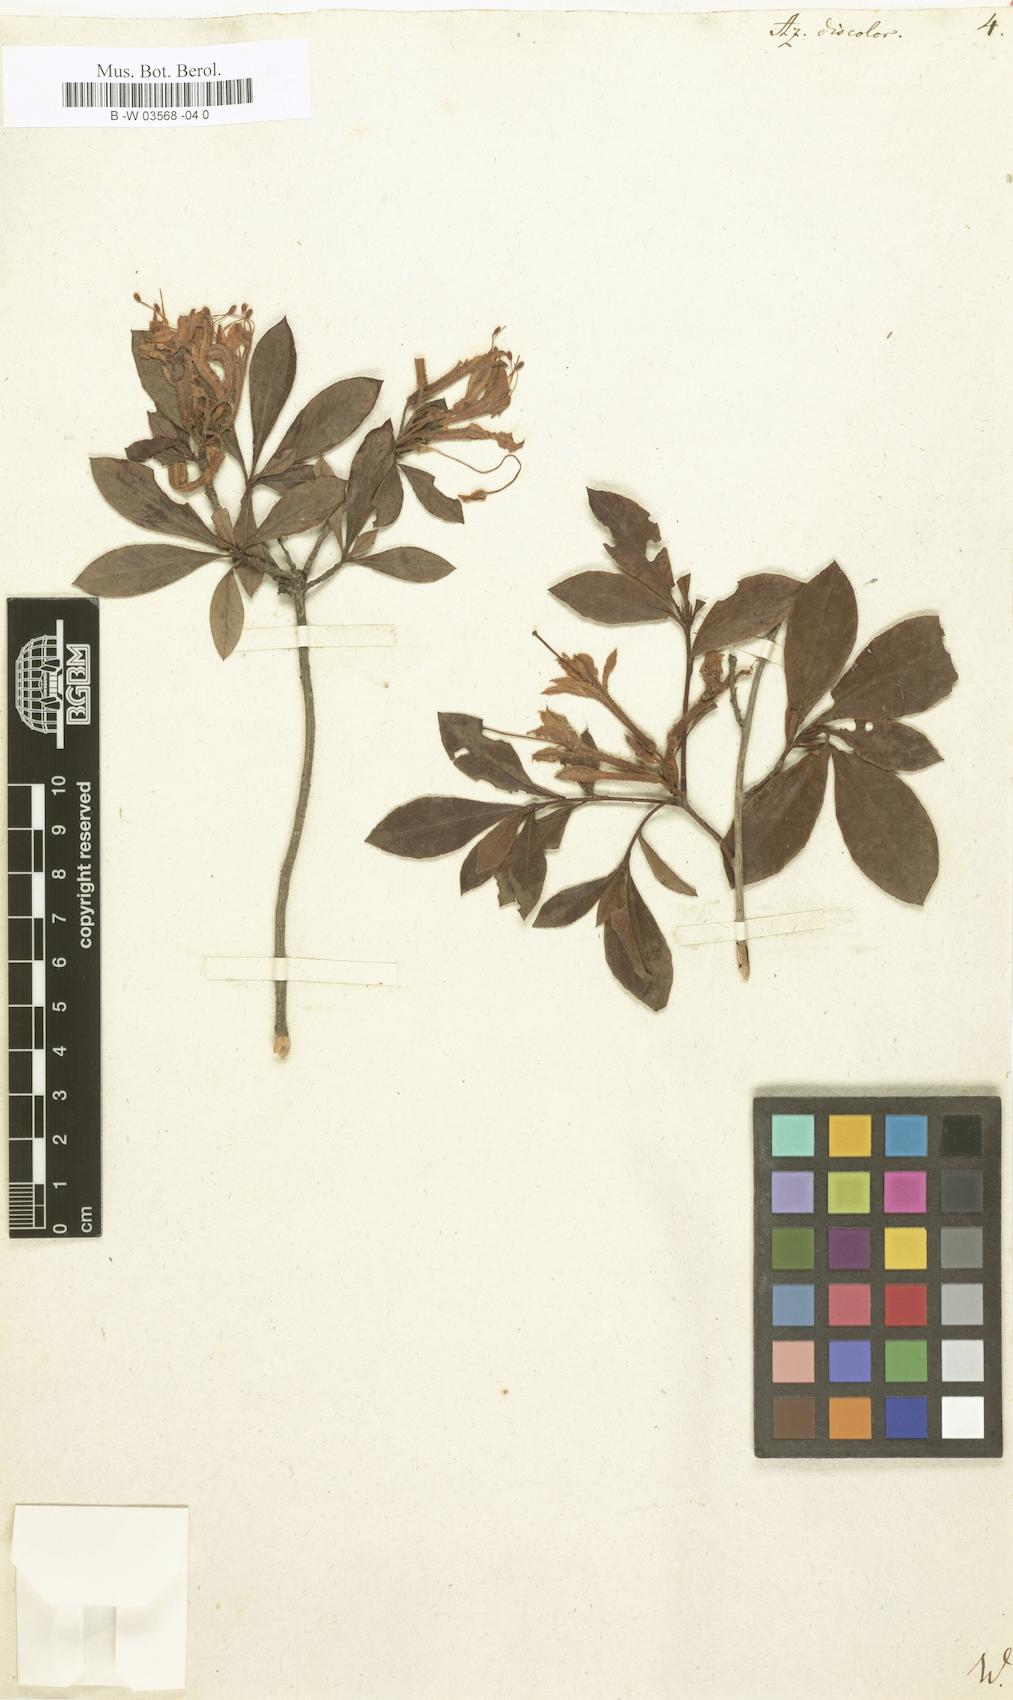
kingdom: Plantae
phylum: Tracheophyta
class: Magnoliopsida
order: Ericales
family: Ericaceae
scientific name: Ericaceae
